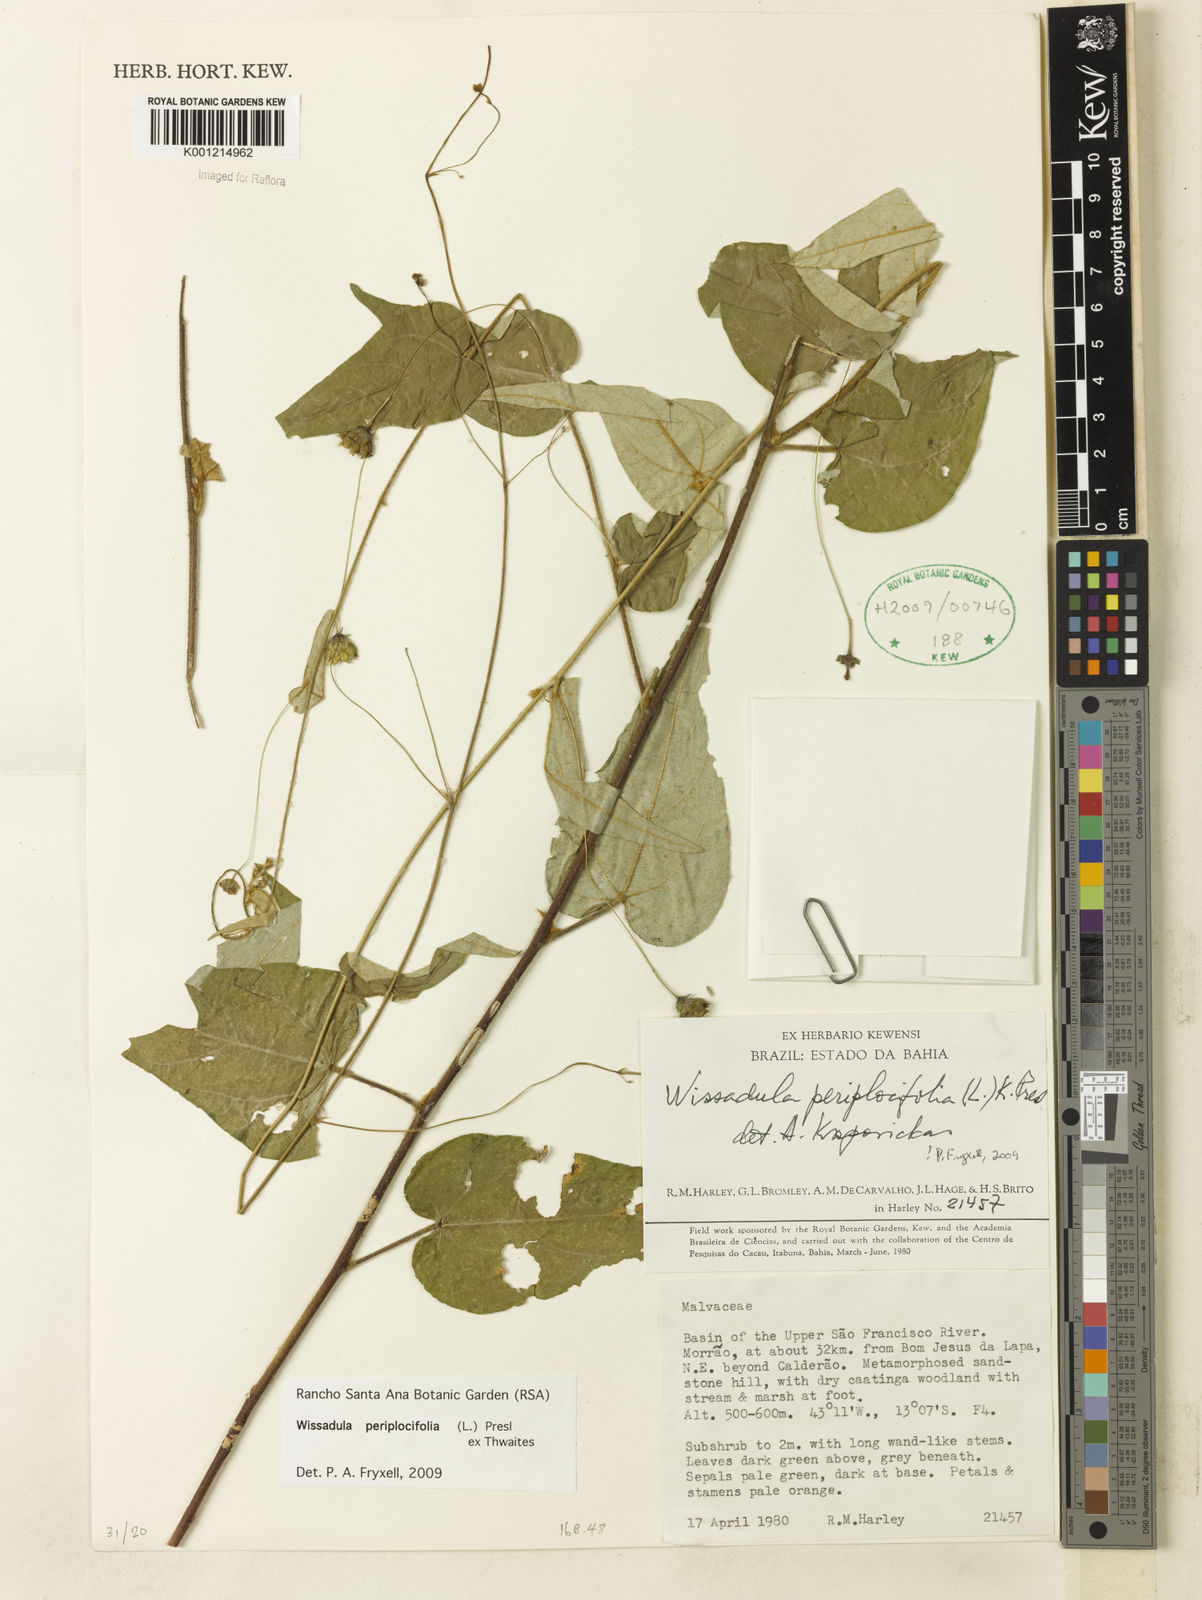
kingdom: Plantae
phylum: Tracheophyta
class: Magnoliopsida
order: Malvales
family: Malvaceae
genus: Wissadula
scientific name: Wissadula periplocifolia
